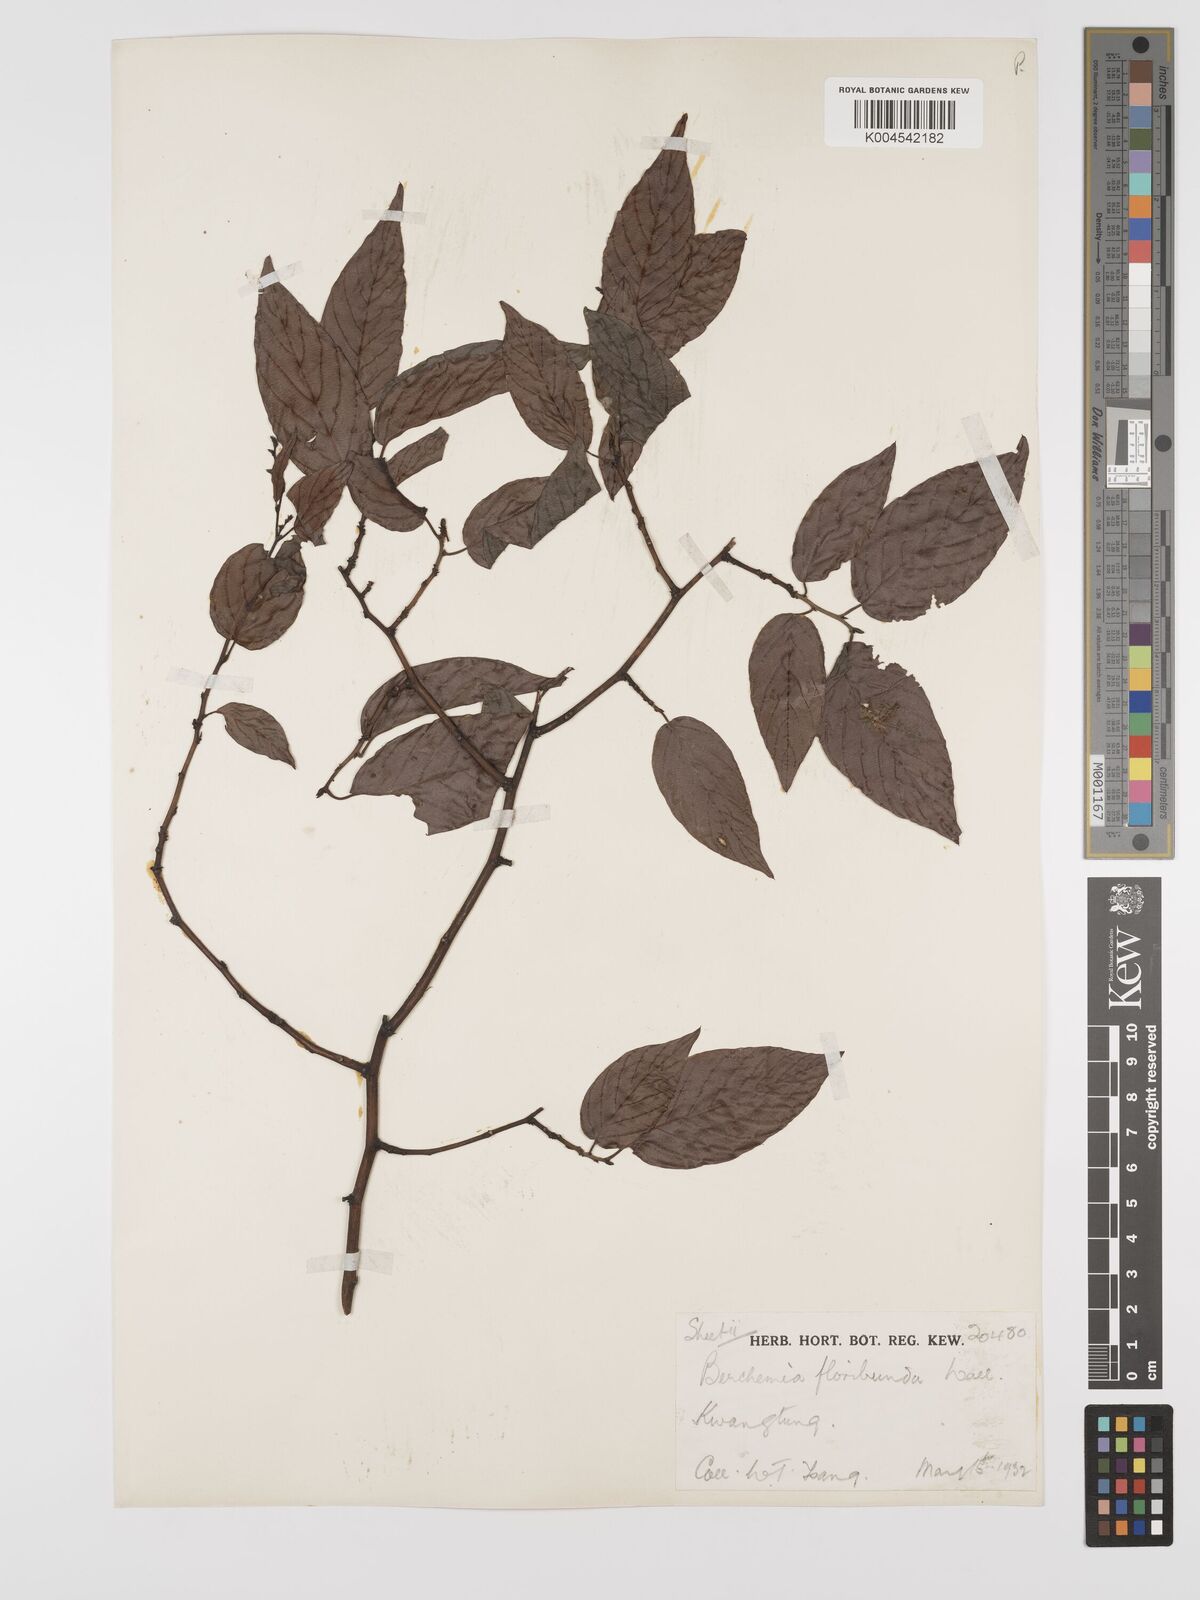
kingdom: Plantae
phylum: Tracheophyta
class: Magnoliopsida
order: Rosales
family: Rhamnaceae
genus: Berchemia
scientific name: Berchemia floribunda
